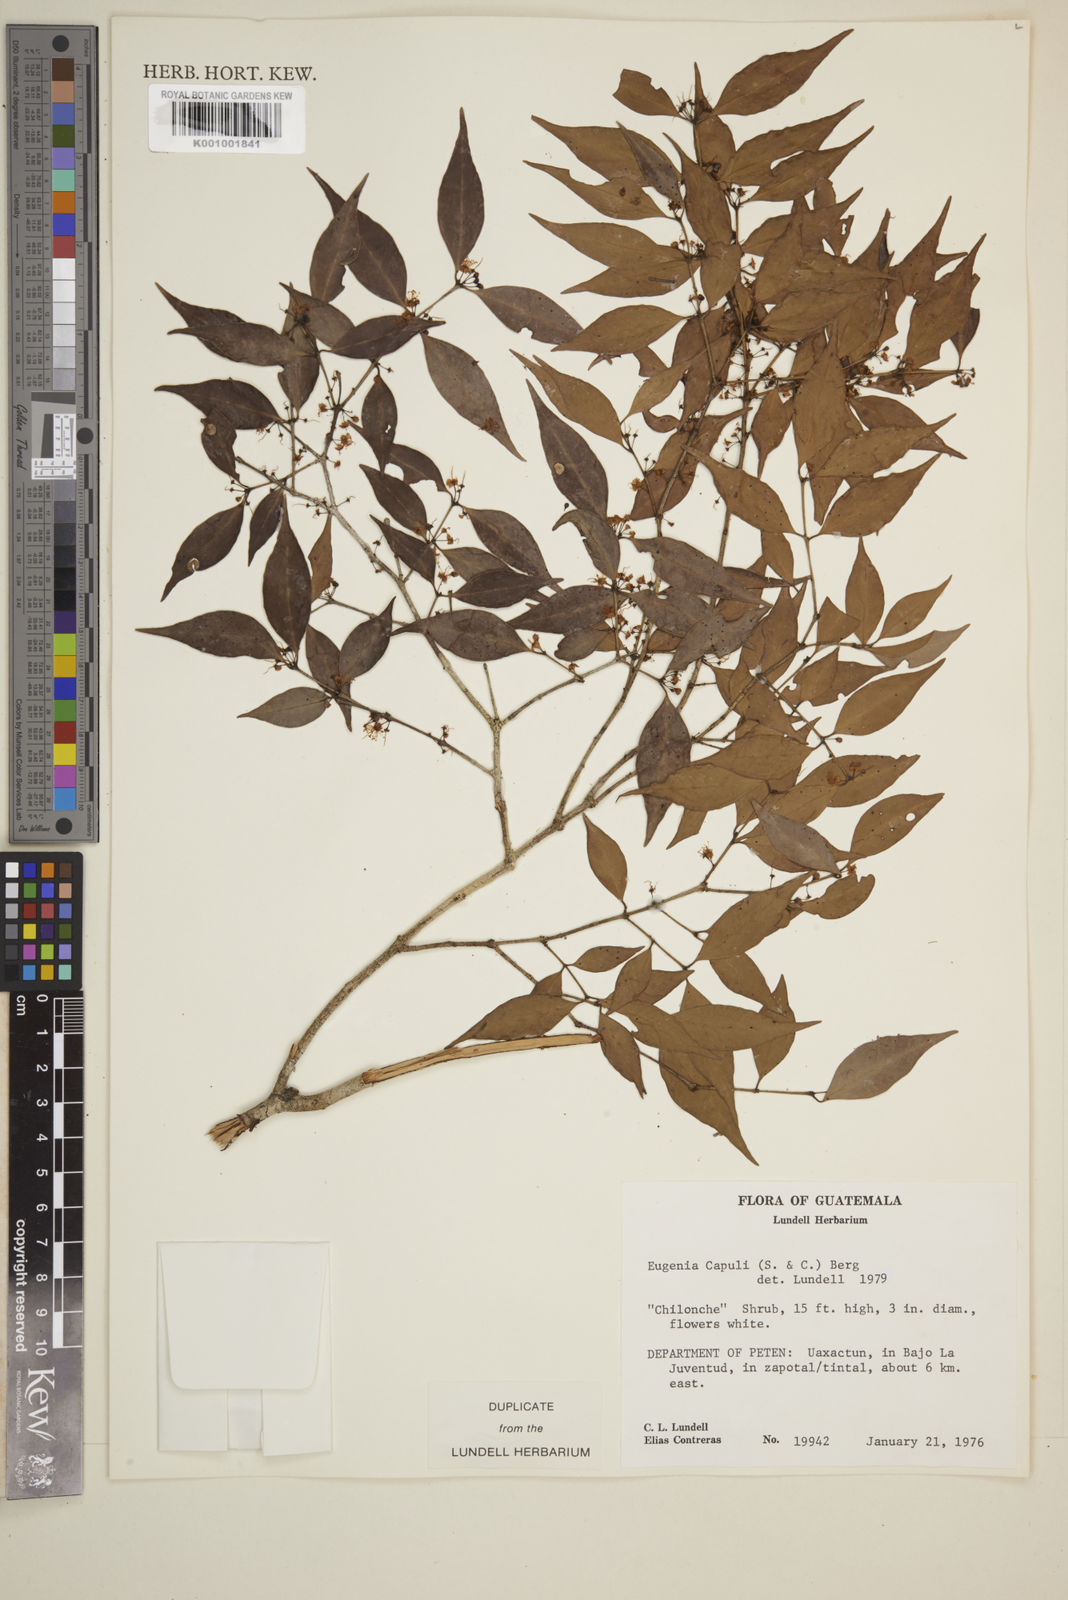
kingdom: Plantae
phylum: Tracheophyta
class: Magnoliopsida
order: Myrtales
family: Myrtaceae
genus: Eugenia
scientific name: Eugenia capuli
